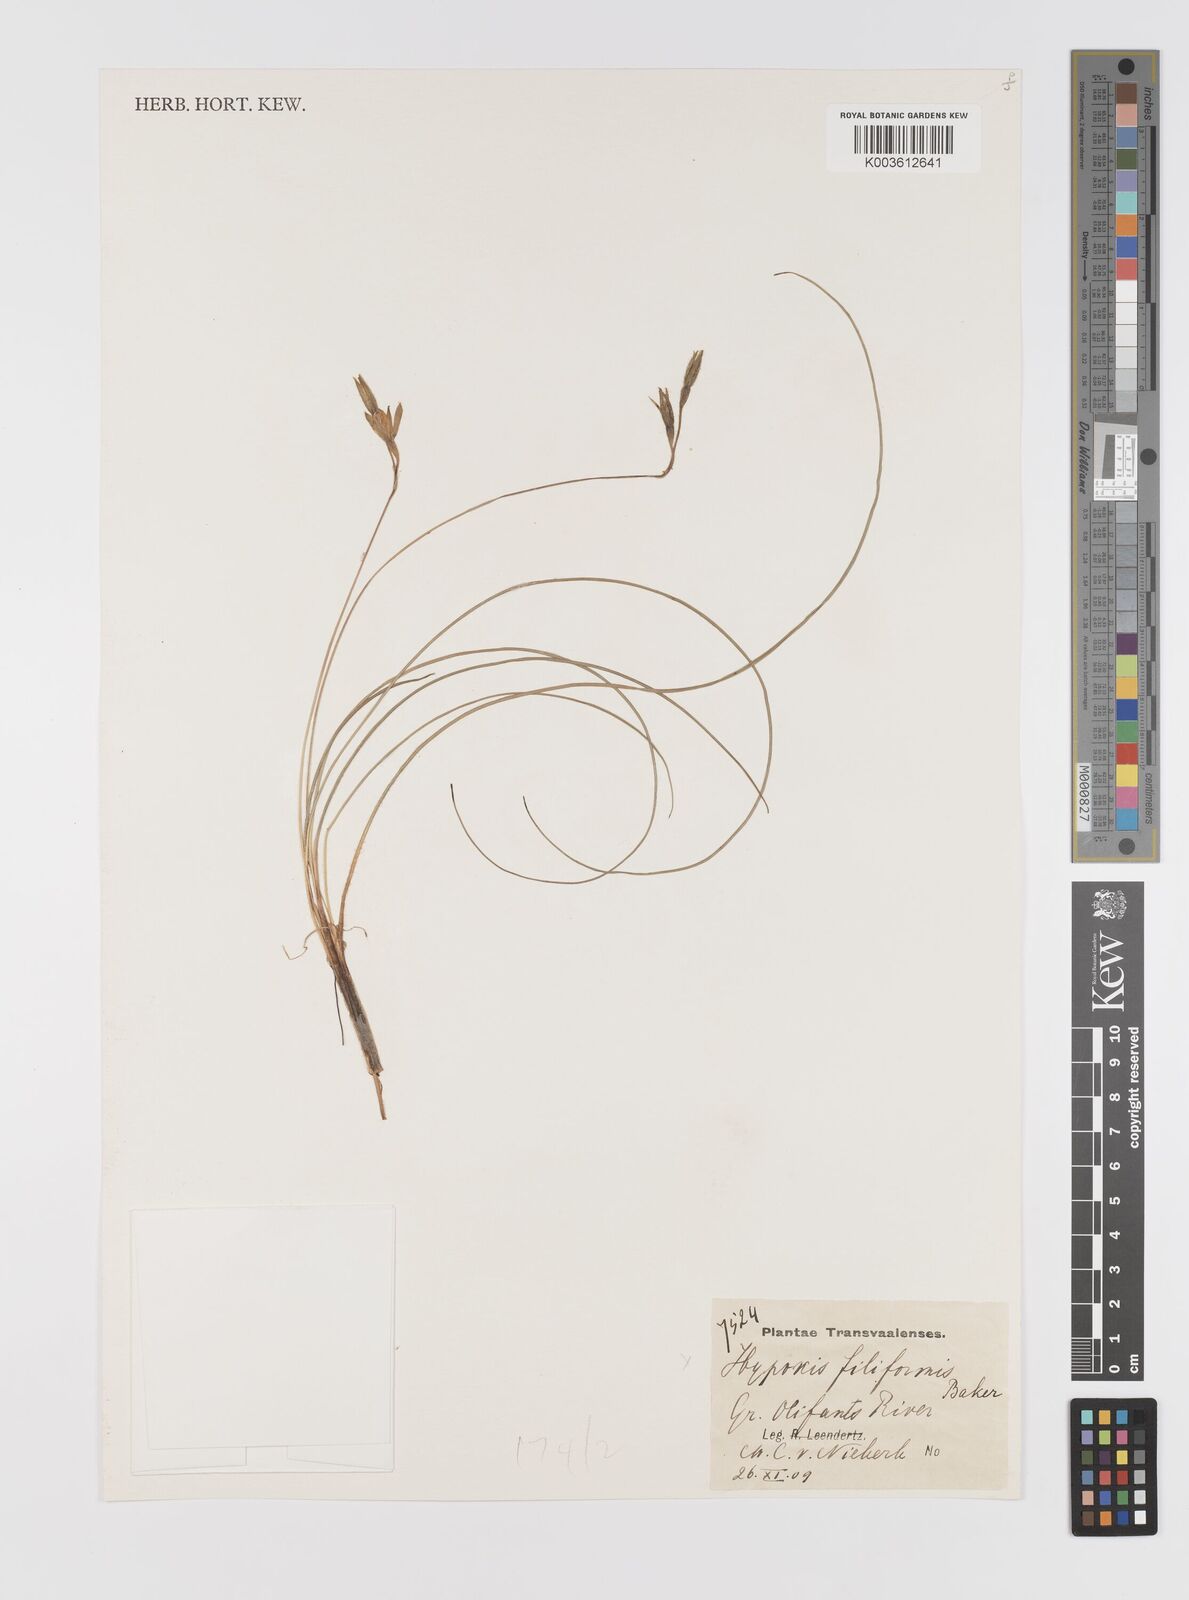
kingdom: Plantae
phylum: Tracheophyta
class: Liliopsida
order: Asparagales
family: Hypoxidaceae
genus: Hypoxis
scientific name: Hypoxis filiformis
